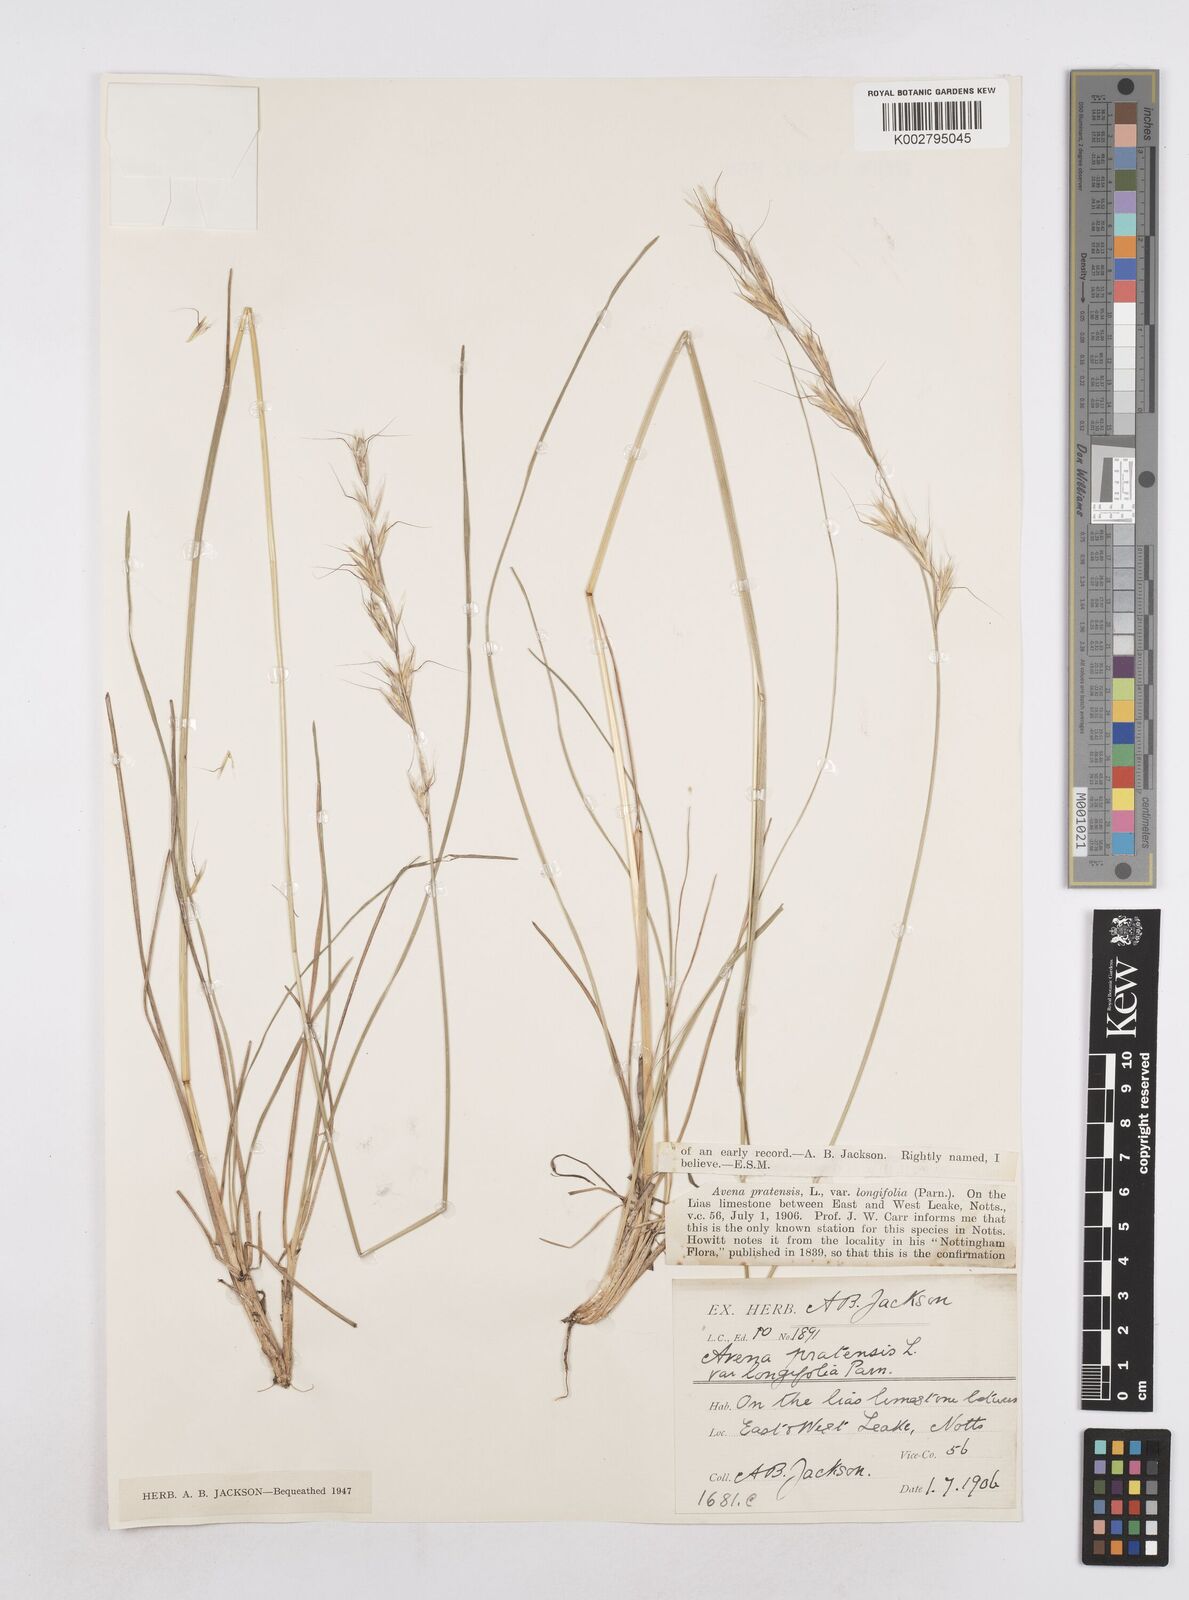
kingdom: Plantae
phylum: Tracheophyta
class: Liliopsida
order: Poales
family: Poaceae
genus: Helictochloa
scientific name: Helictochloa pratensis
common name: Meadow oat grass
